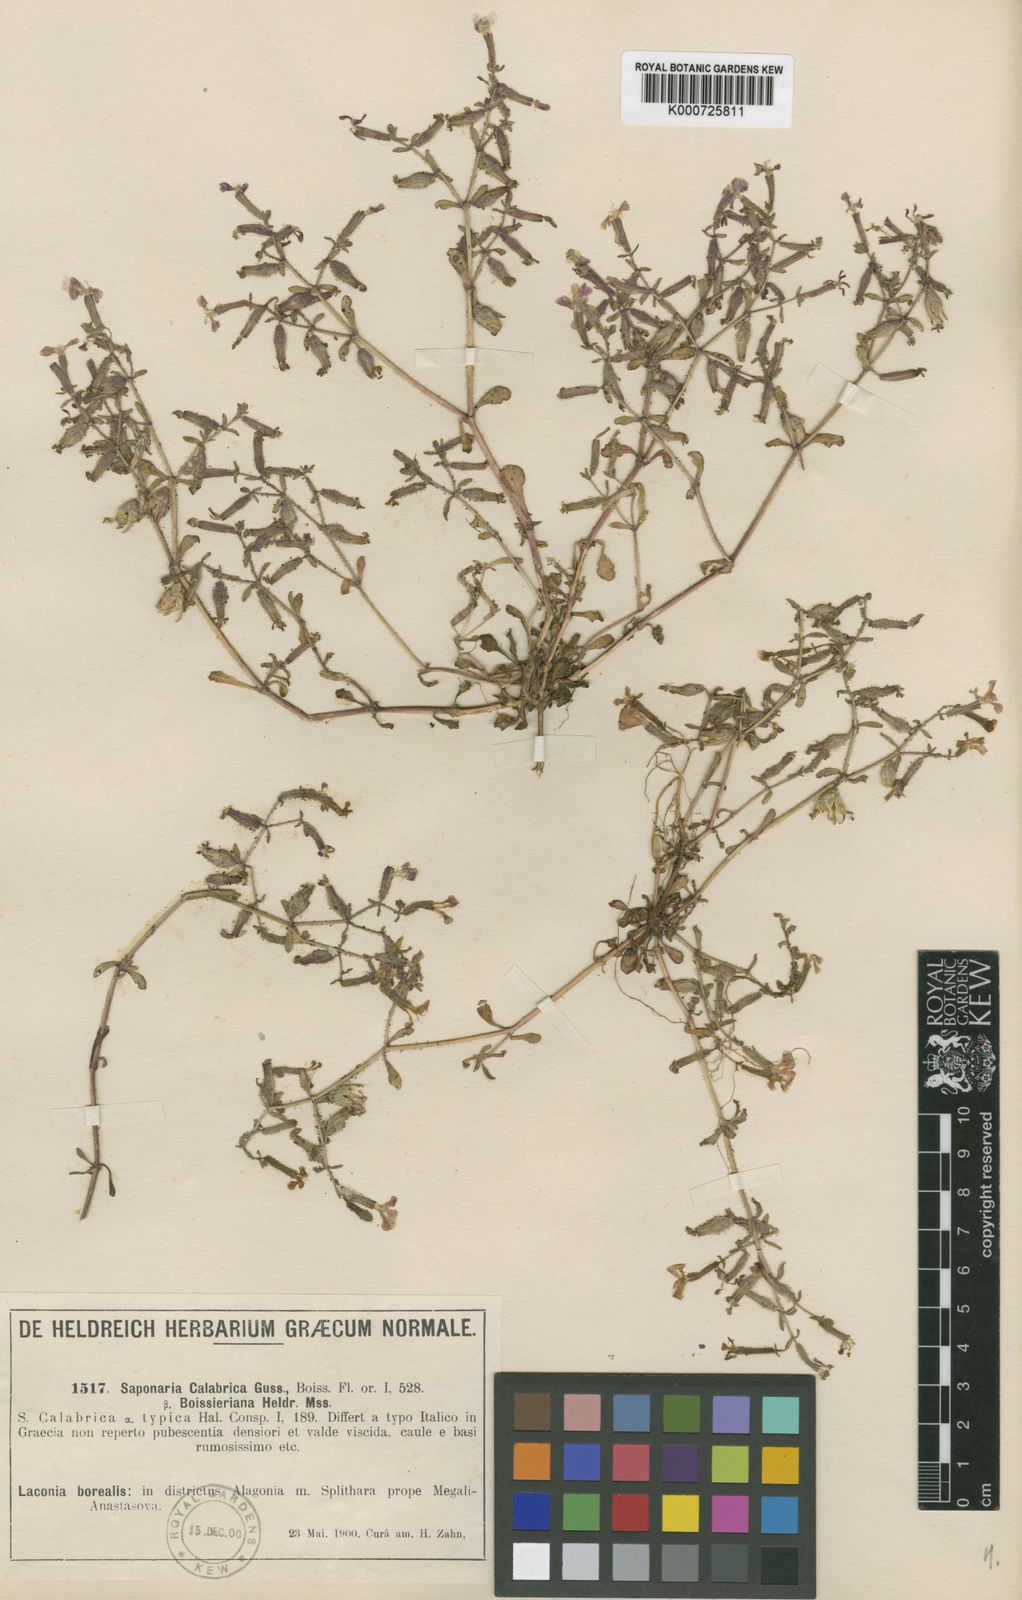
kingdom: Plantae
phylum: Tracheophyta
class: Magnoliopsida
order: Caryophyllales
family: Caryophyllaceae
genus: Saponaria
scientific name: Saponaria calabrica
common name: Adriatic soapwort
